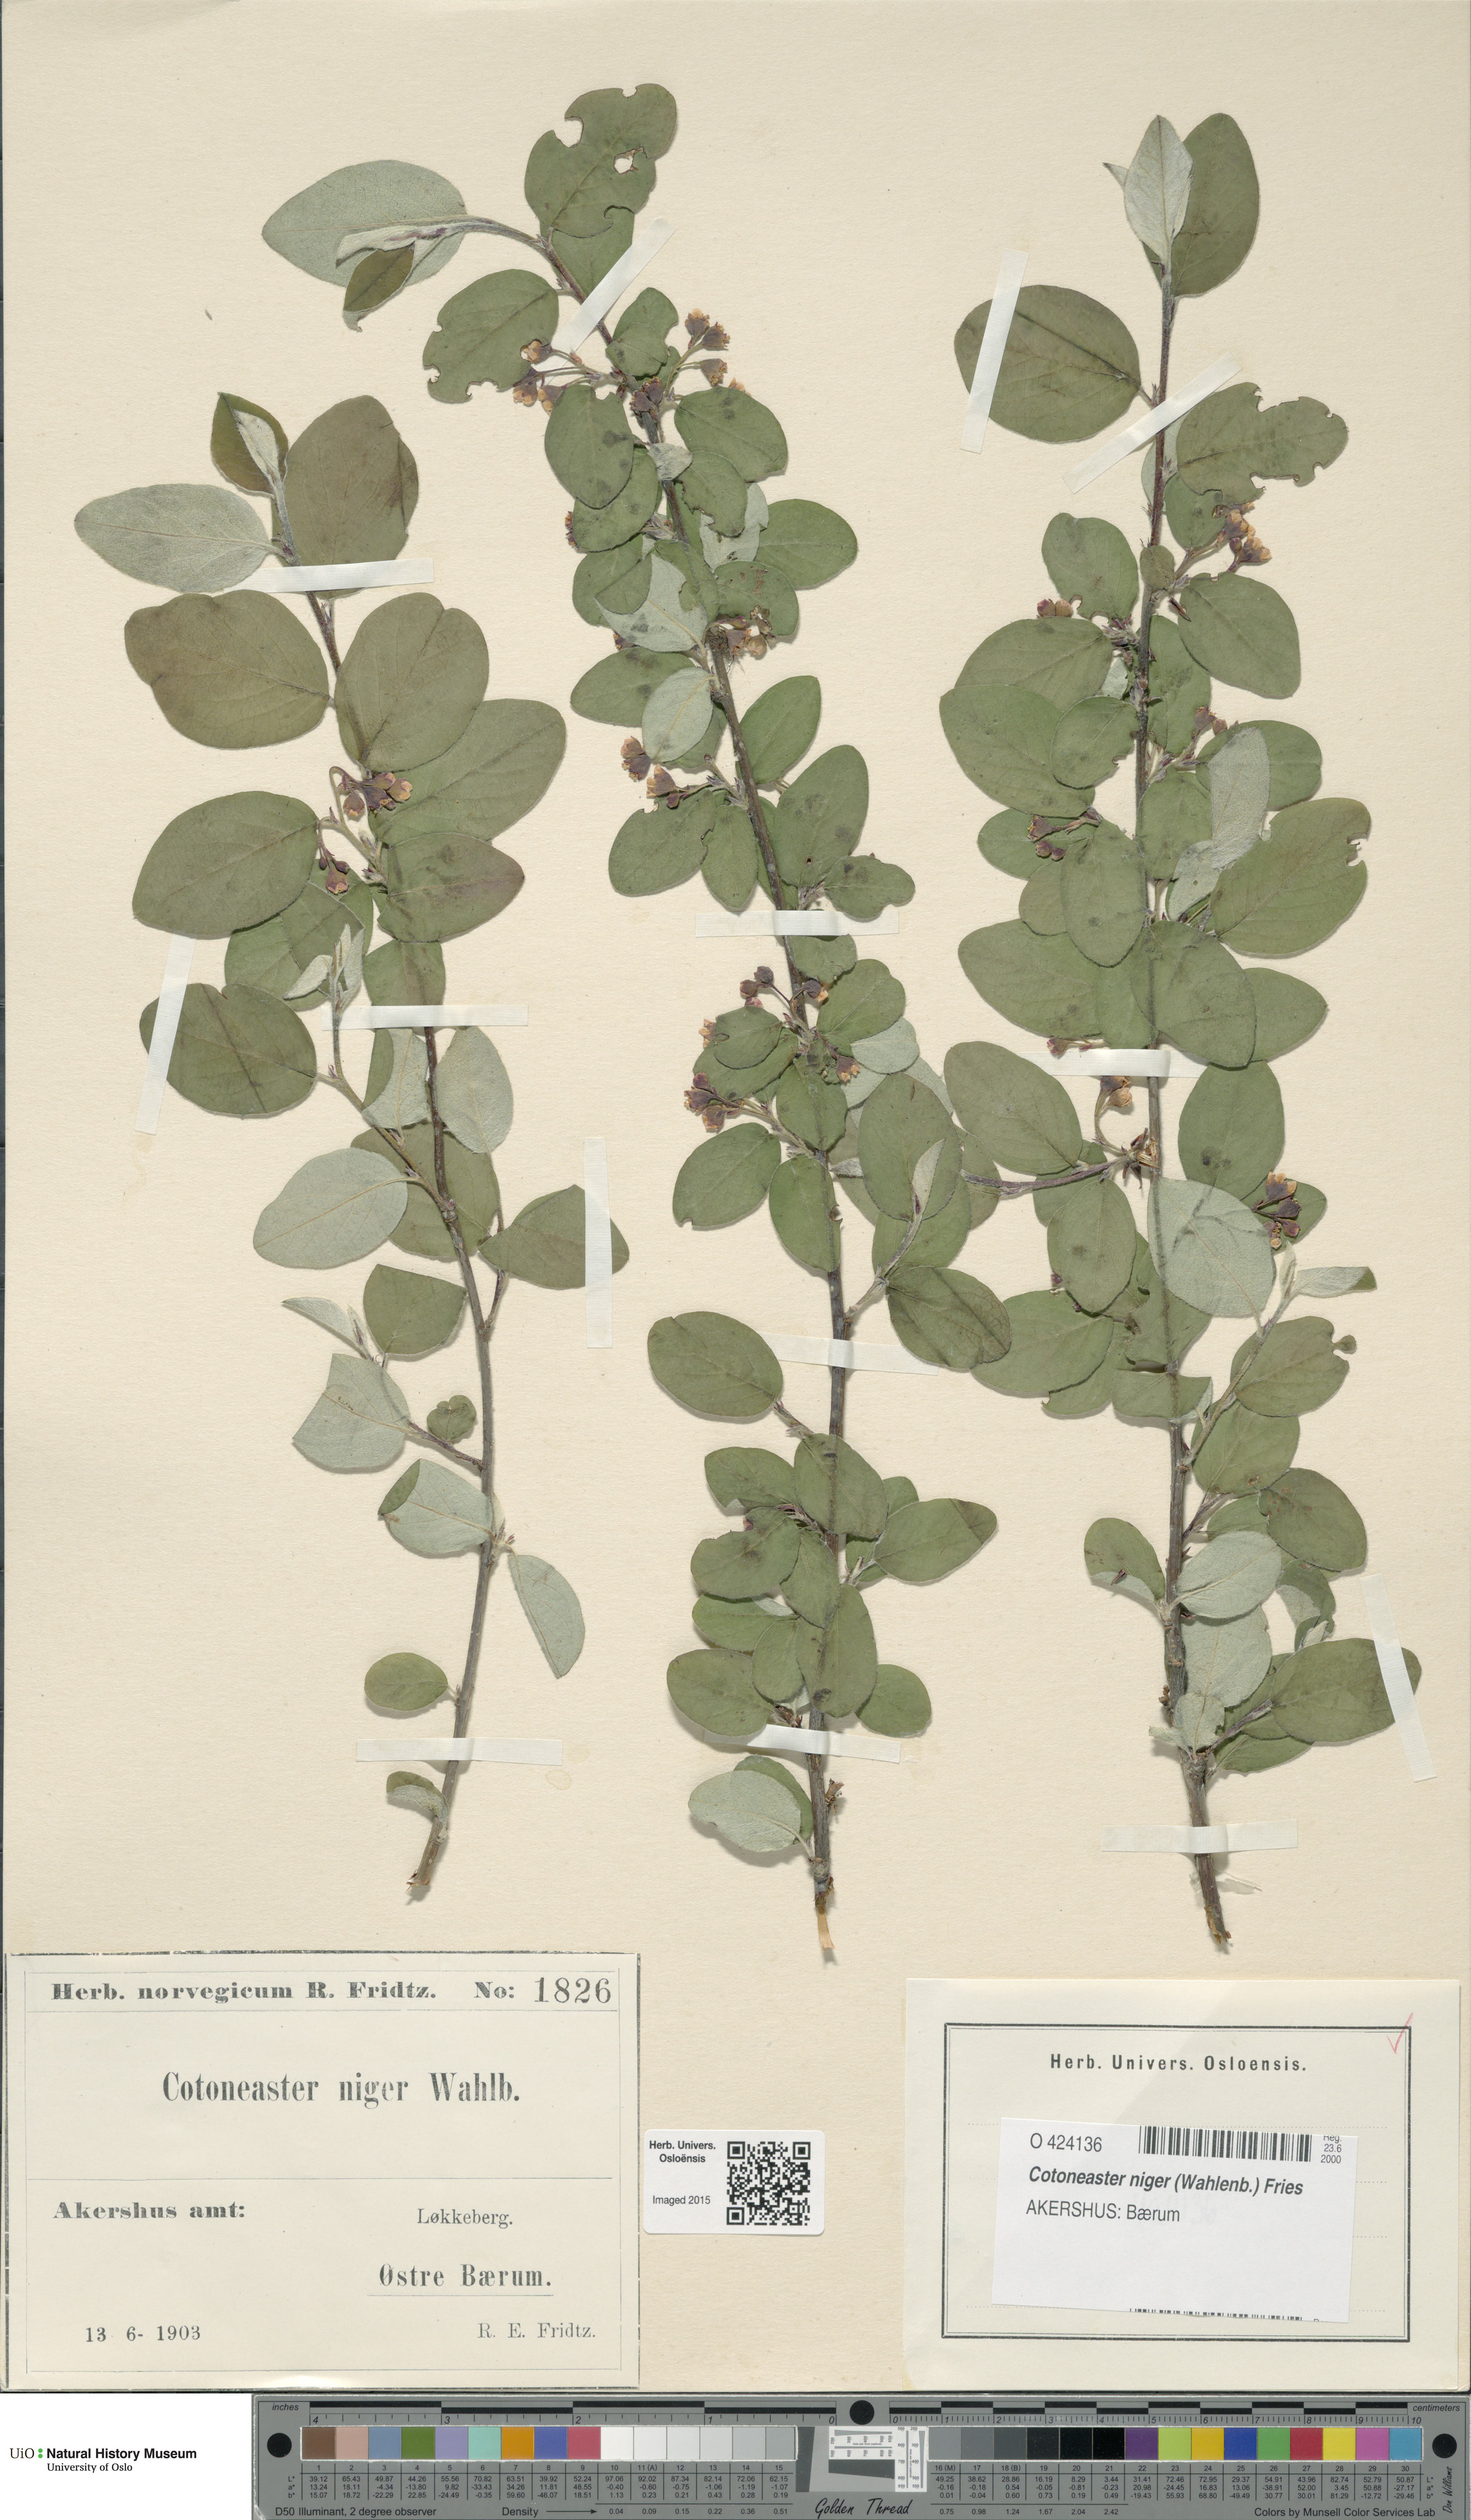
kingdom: Plantae
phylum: Tracheophyta
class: Magnoliopsida
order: Rosales
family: Rosaceae
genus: Cotoneaster
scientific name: Cotoneaster niger
